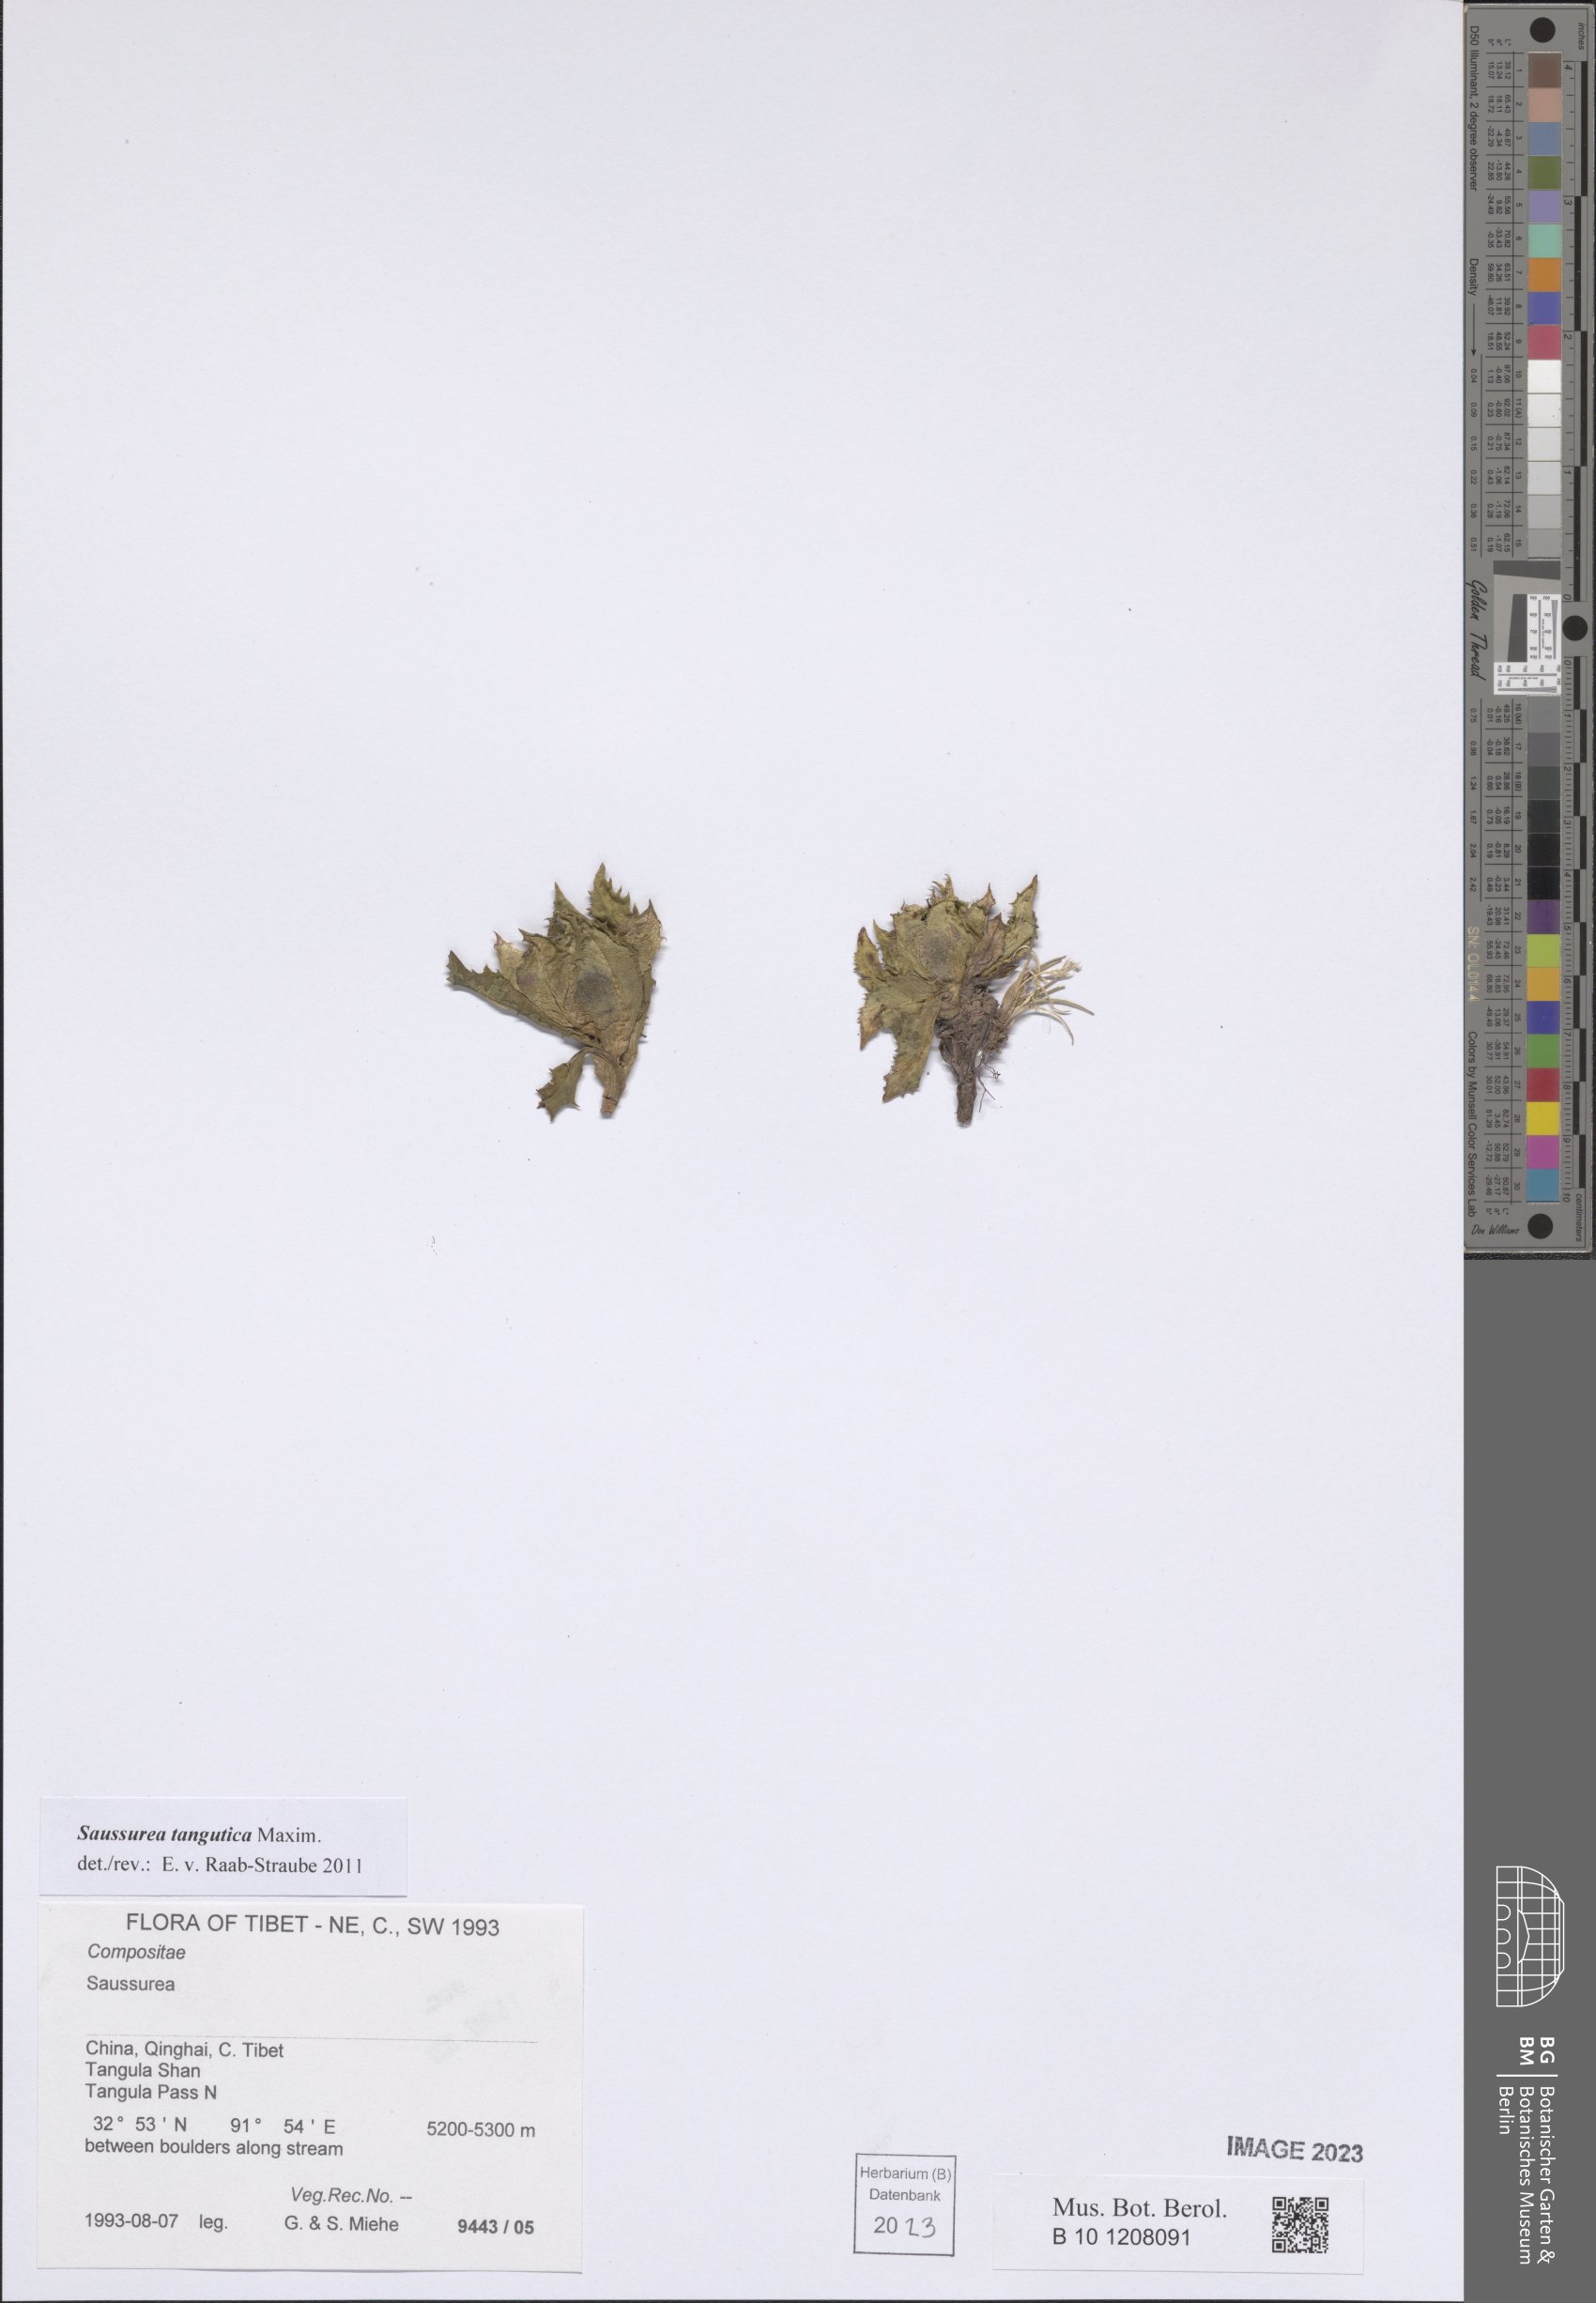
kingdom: Plantae
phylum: Tracheophyta
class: Magnoliopsida
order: Asterales
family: Asteraceae
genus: Saussurea
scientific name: Saussurea tangutica
